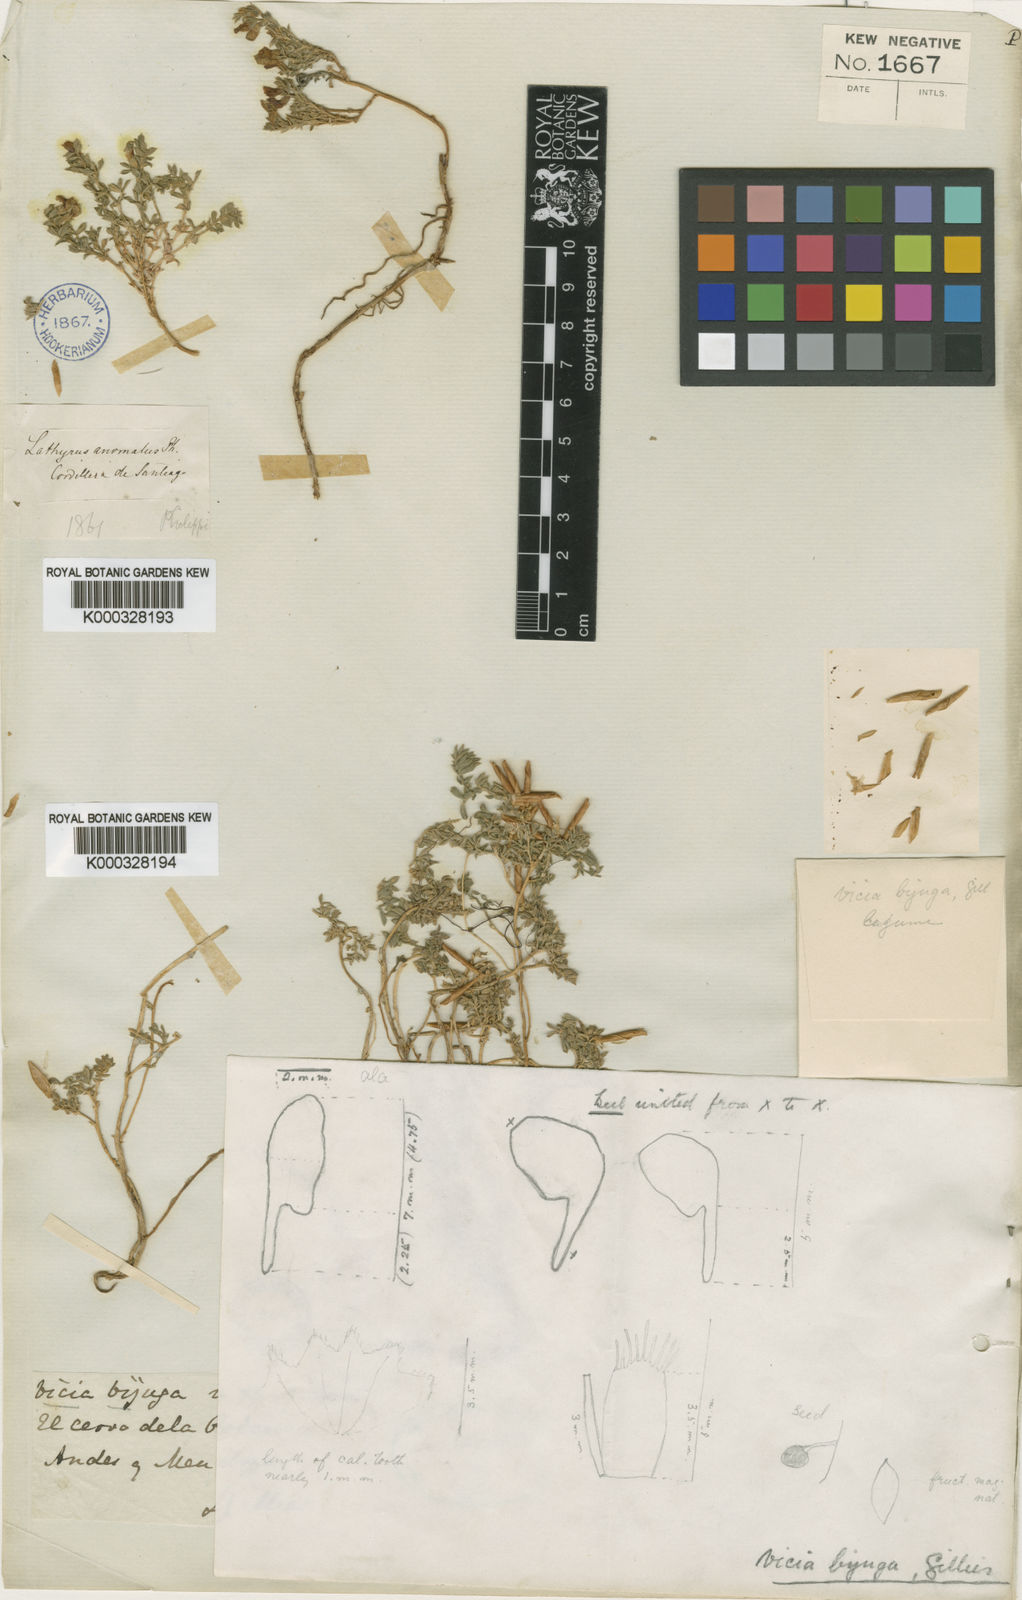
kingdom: Plantae
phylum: Tracheophyta
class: Magnoliopsida
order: Fabales
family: Fabaceae
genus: Vicia
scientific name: Vicia bijuga
